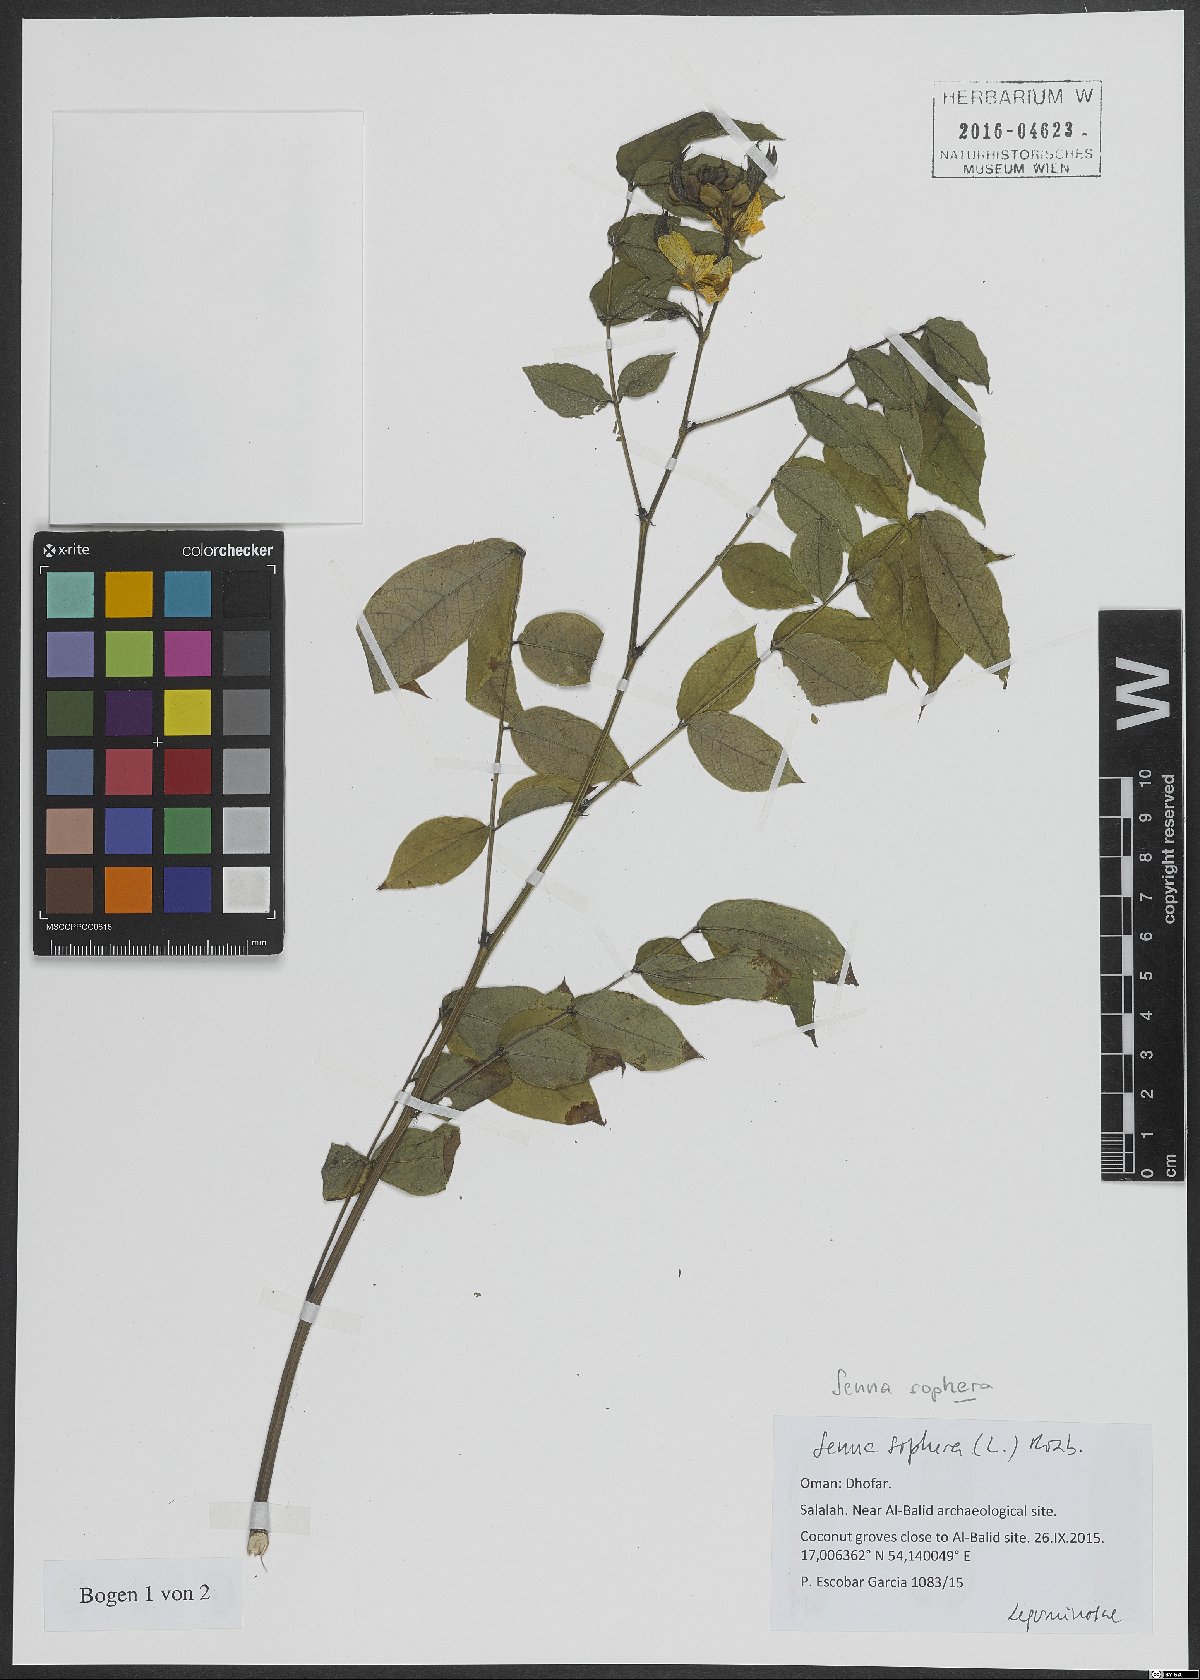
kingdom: Plantae
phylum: Tracheophyta
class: Magnoliopsida
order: Fabales
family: Fabaceae
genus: Senna
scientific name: Senna sophera
